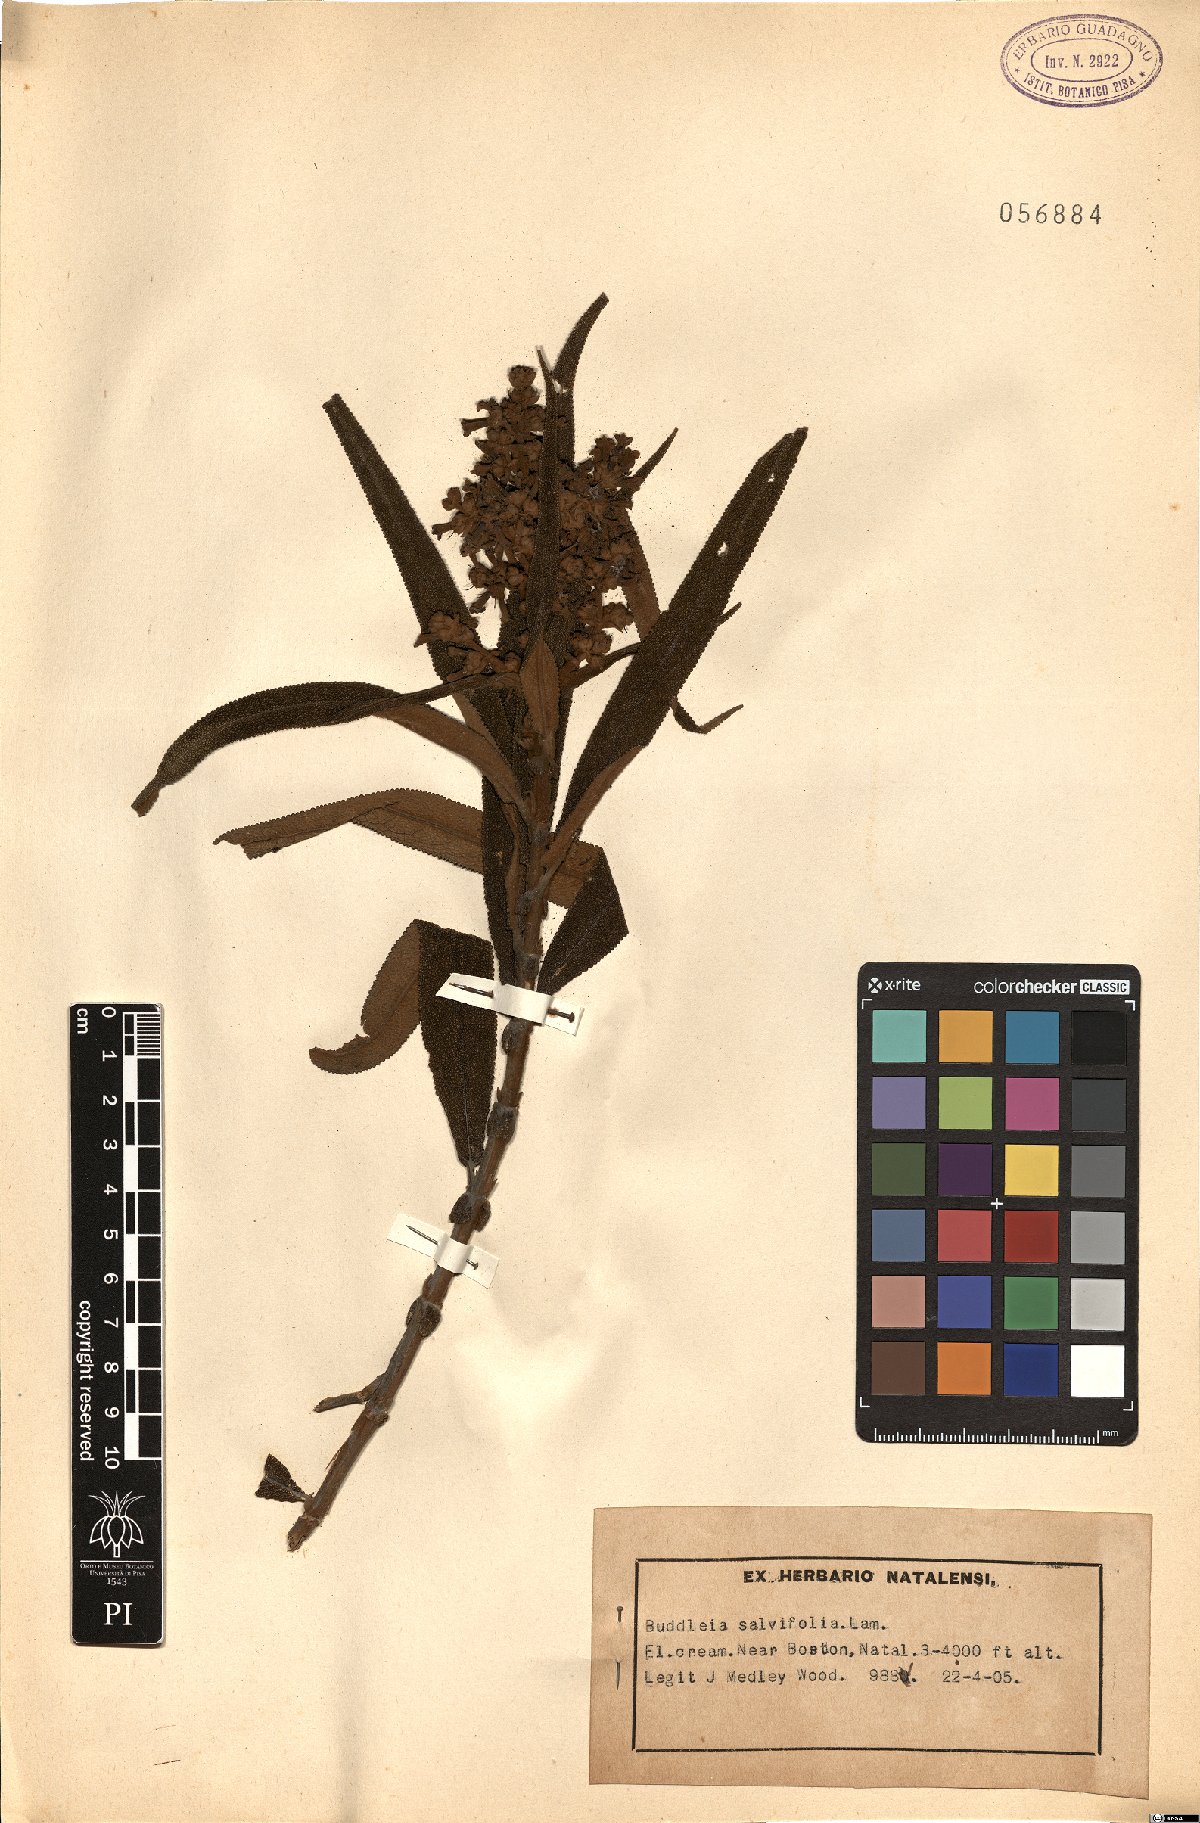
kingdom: Plantae
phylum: Tracheophyta
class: Magnoliopsida
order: Lamiales
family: Scrophulariaceae
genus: Buddleja
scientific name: Buddleja salviifolia
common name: Sagewood
